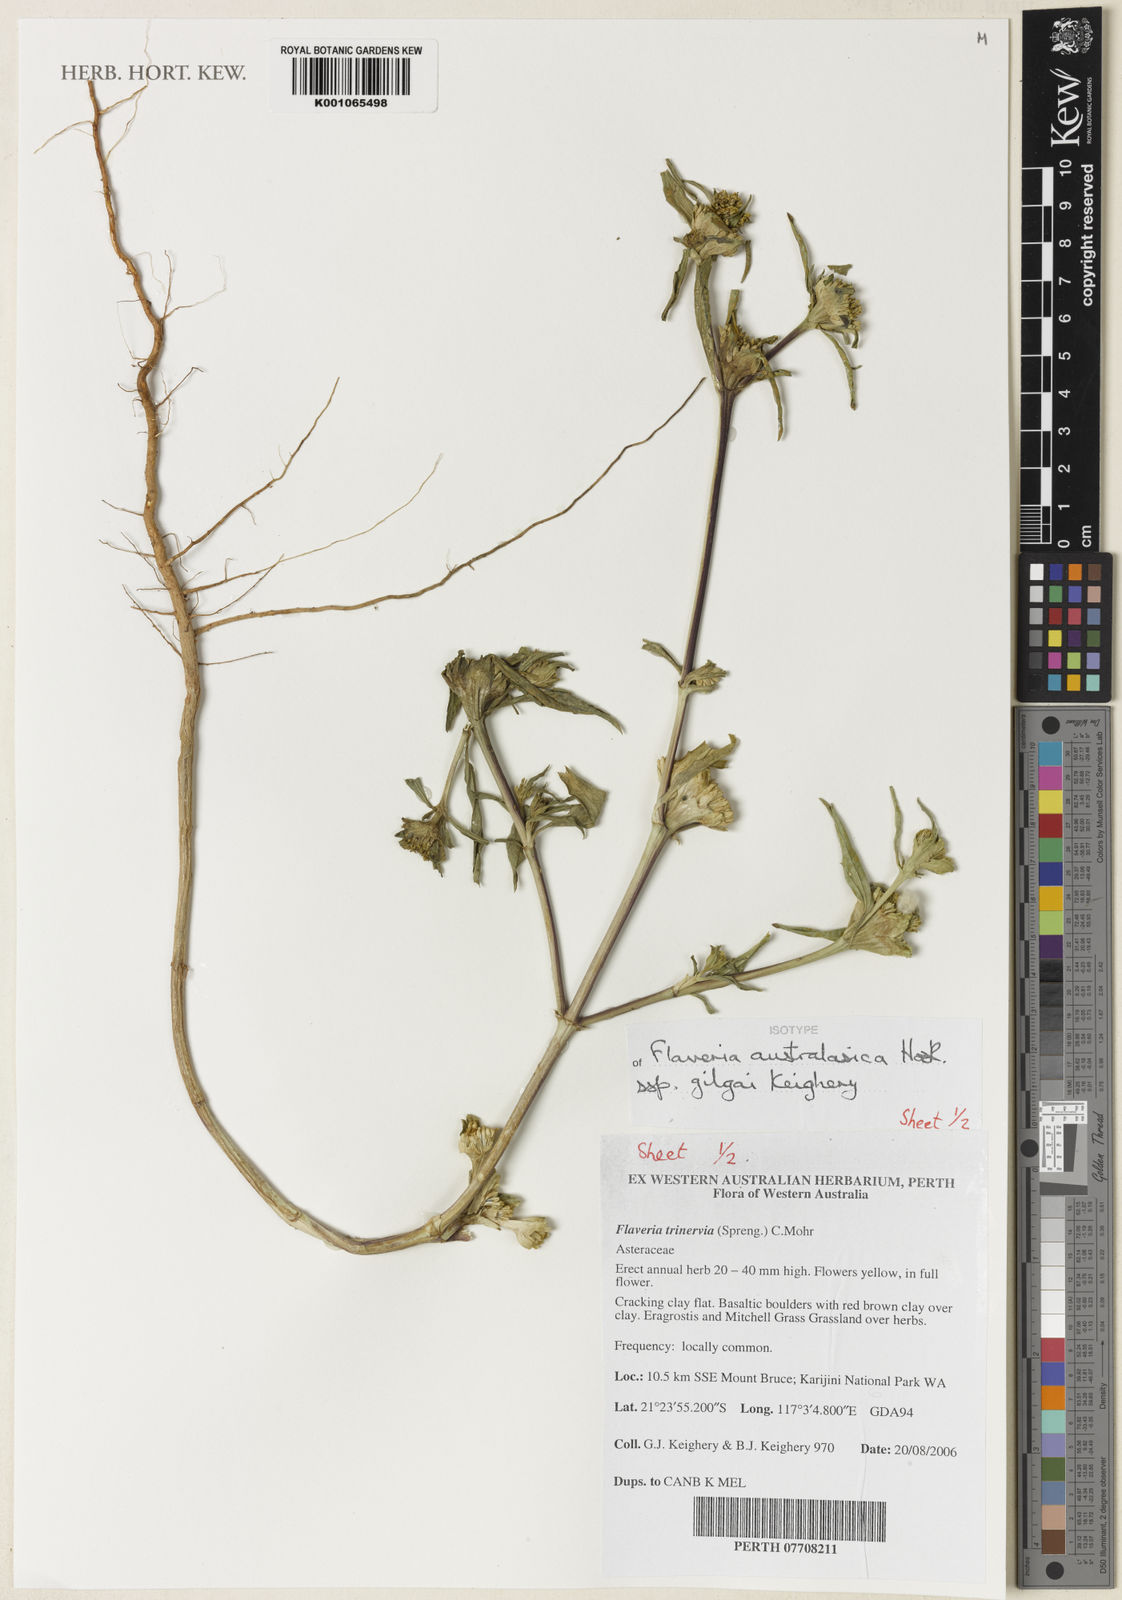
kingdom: Plantae
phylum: Tracheophyta
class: Magnoliopsida
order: Asterales
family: Asteraceae
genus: Flaveria
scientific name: Flaveria trinervia
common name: Clustered yellowtops
